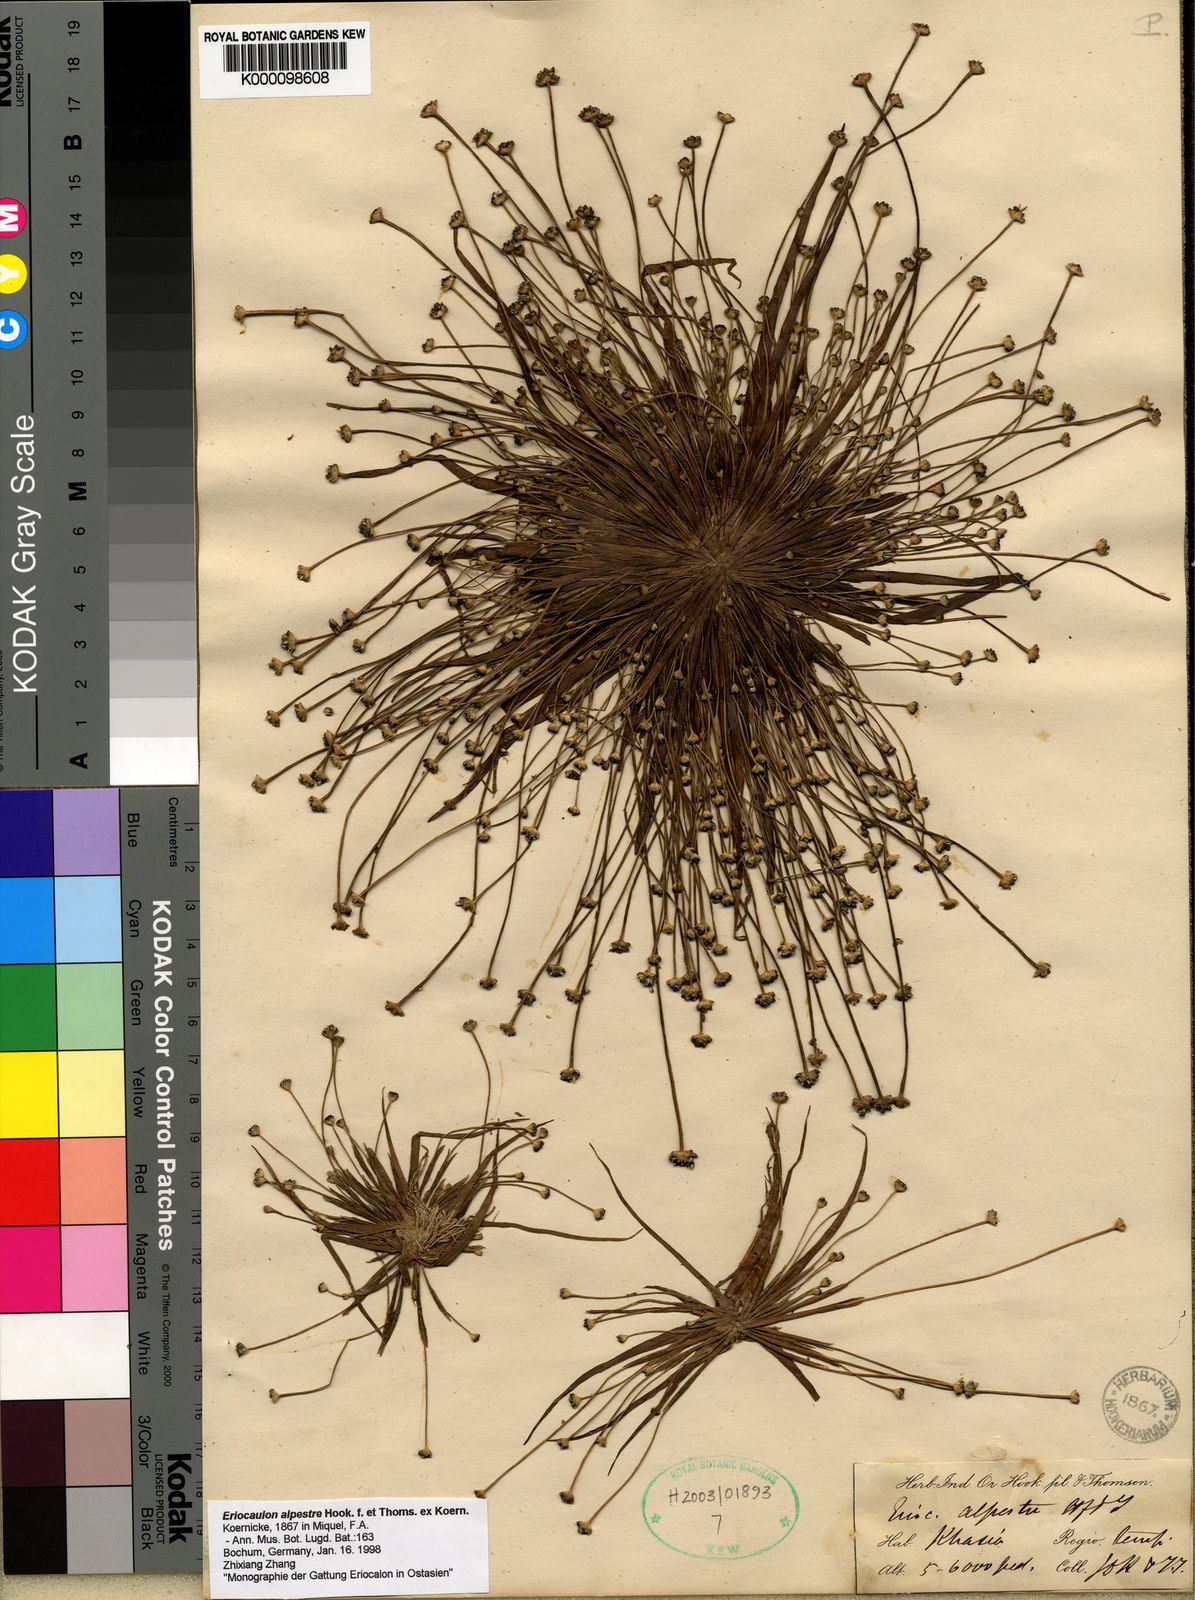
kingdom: Plantae
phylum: Tracheophyta
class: Liliopsida
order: Poales
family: Eriocaulaceae
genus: Eriocaulon
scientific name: Eriocaulon
